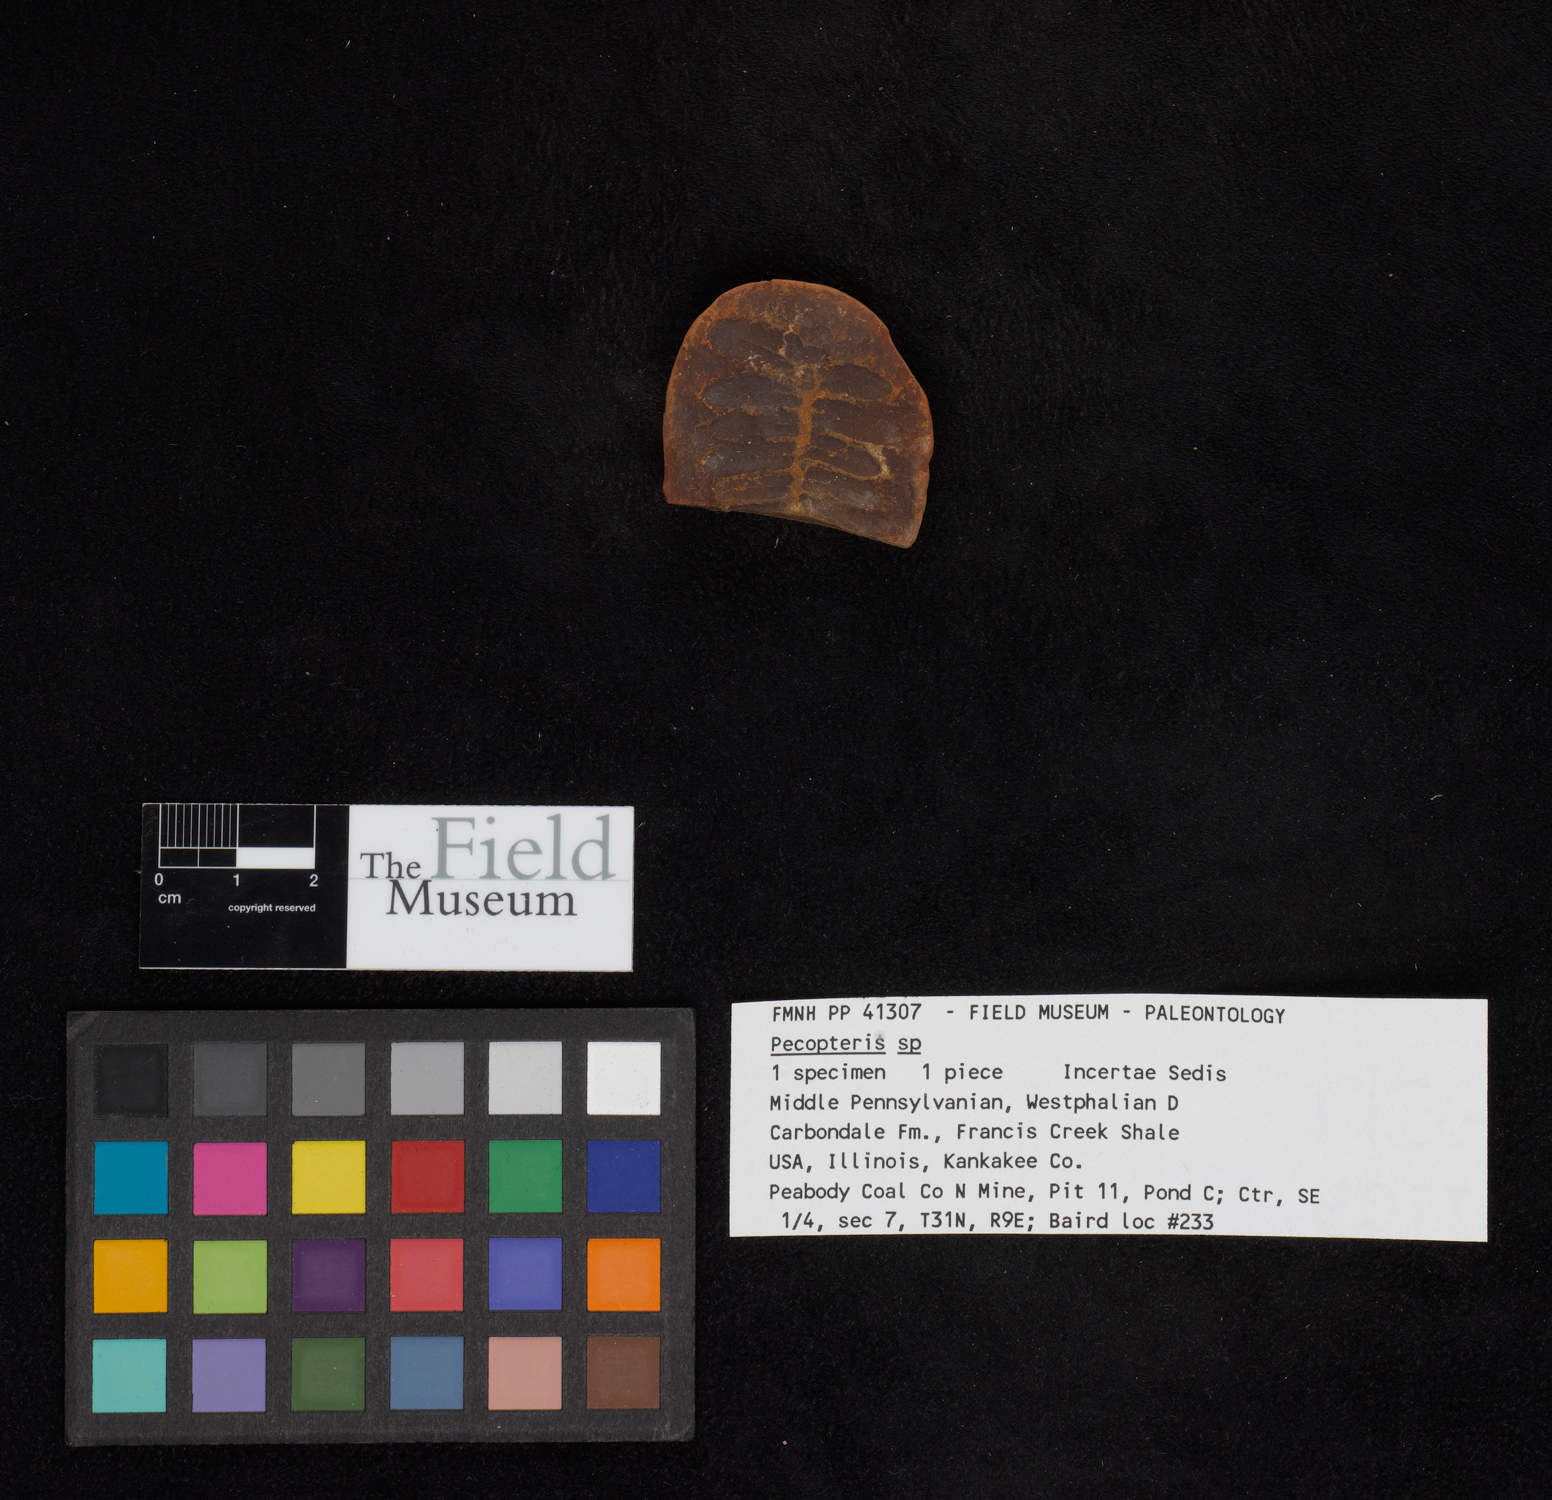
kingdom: Plantae
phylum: Tracheophyta
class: Polypodiopsida
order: Marattiales
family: Asterothecaceae
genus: Pecopteris
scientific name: Pecopteris
